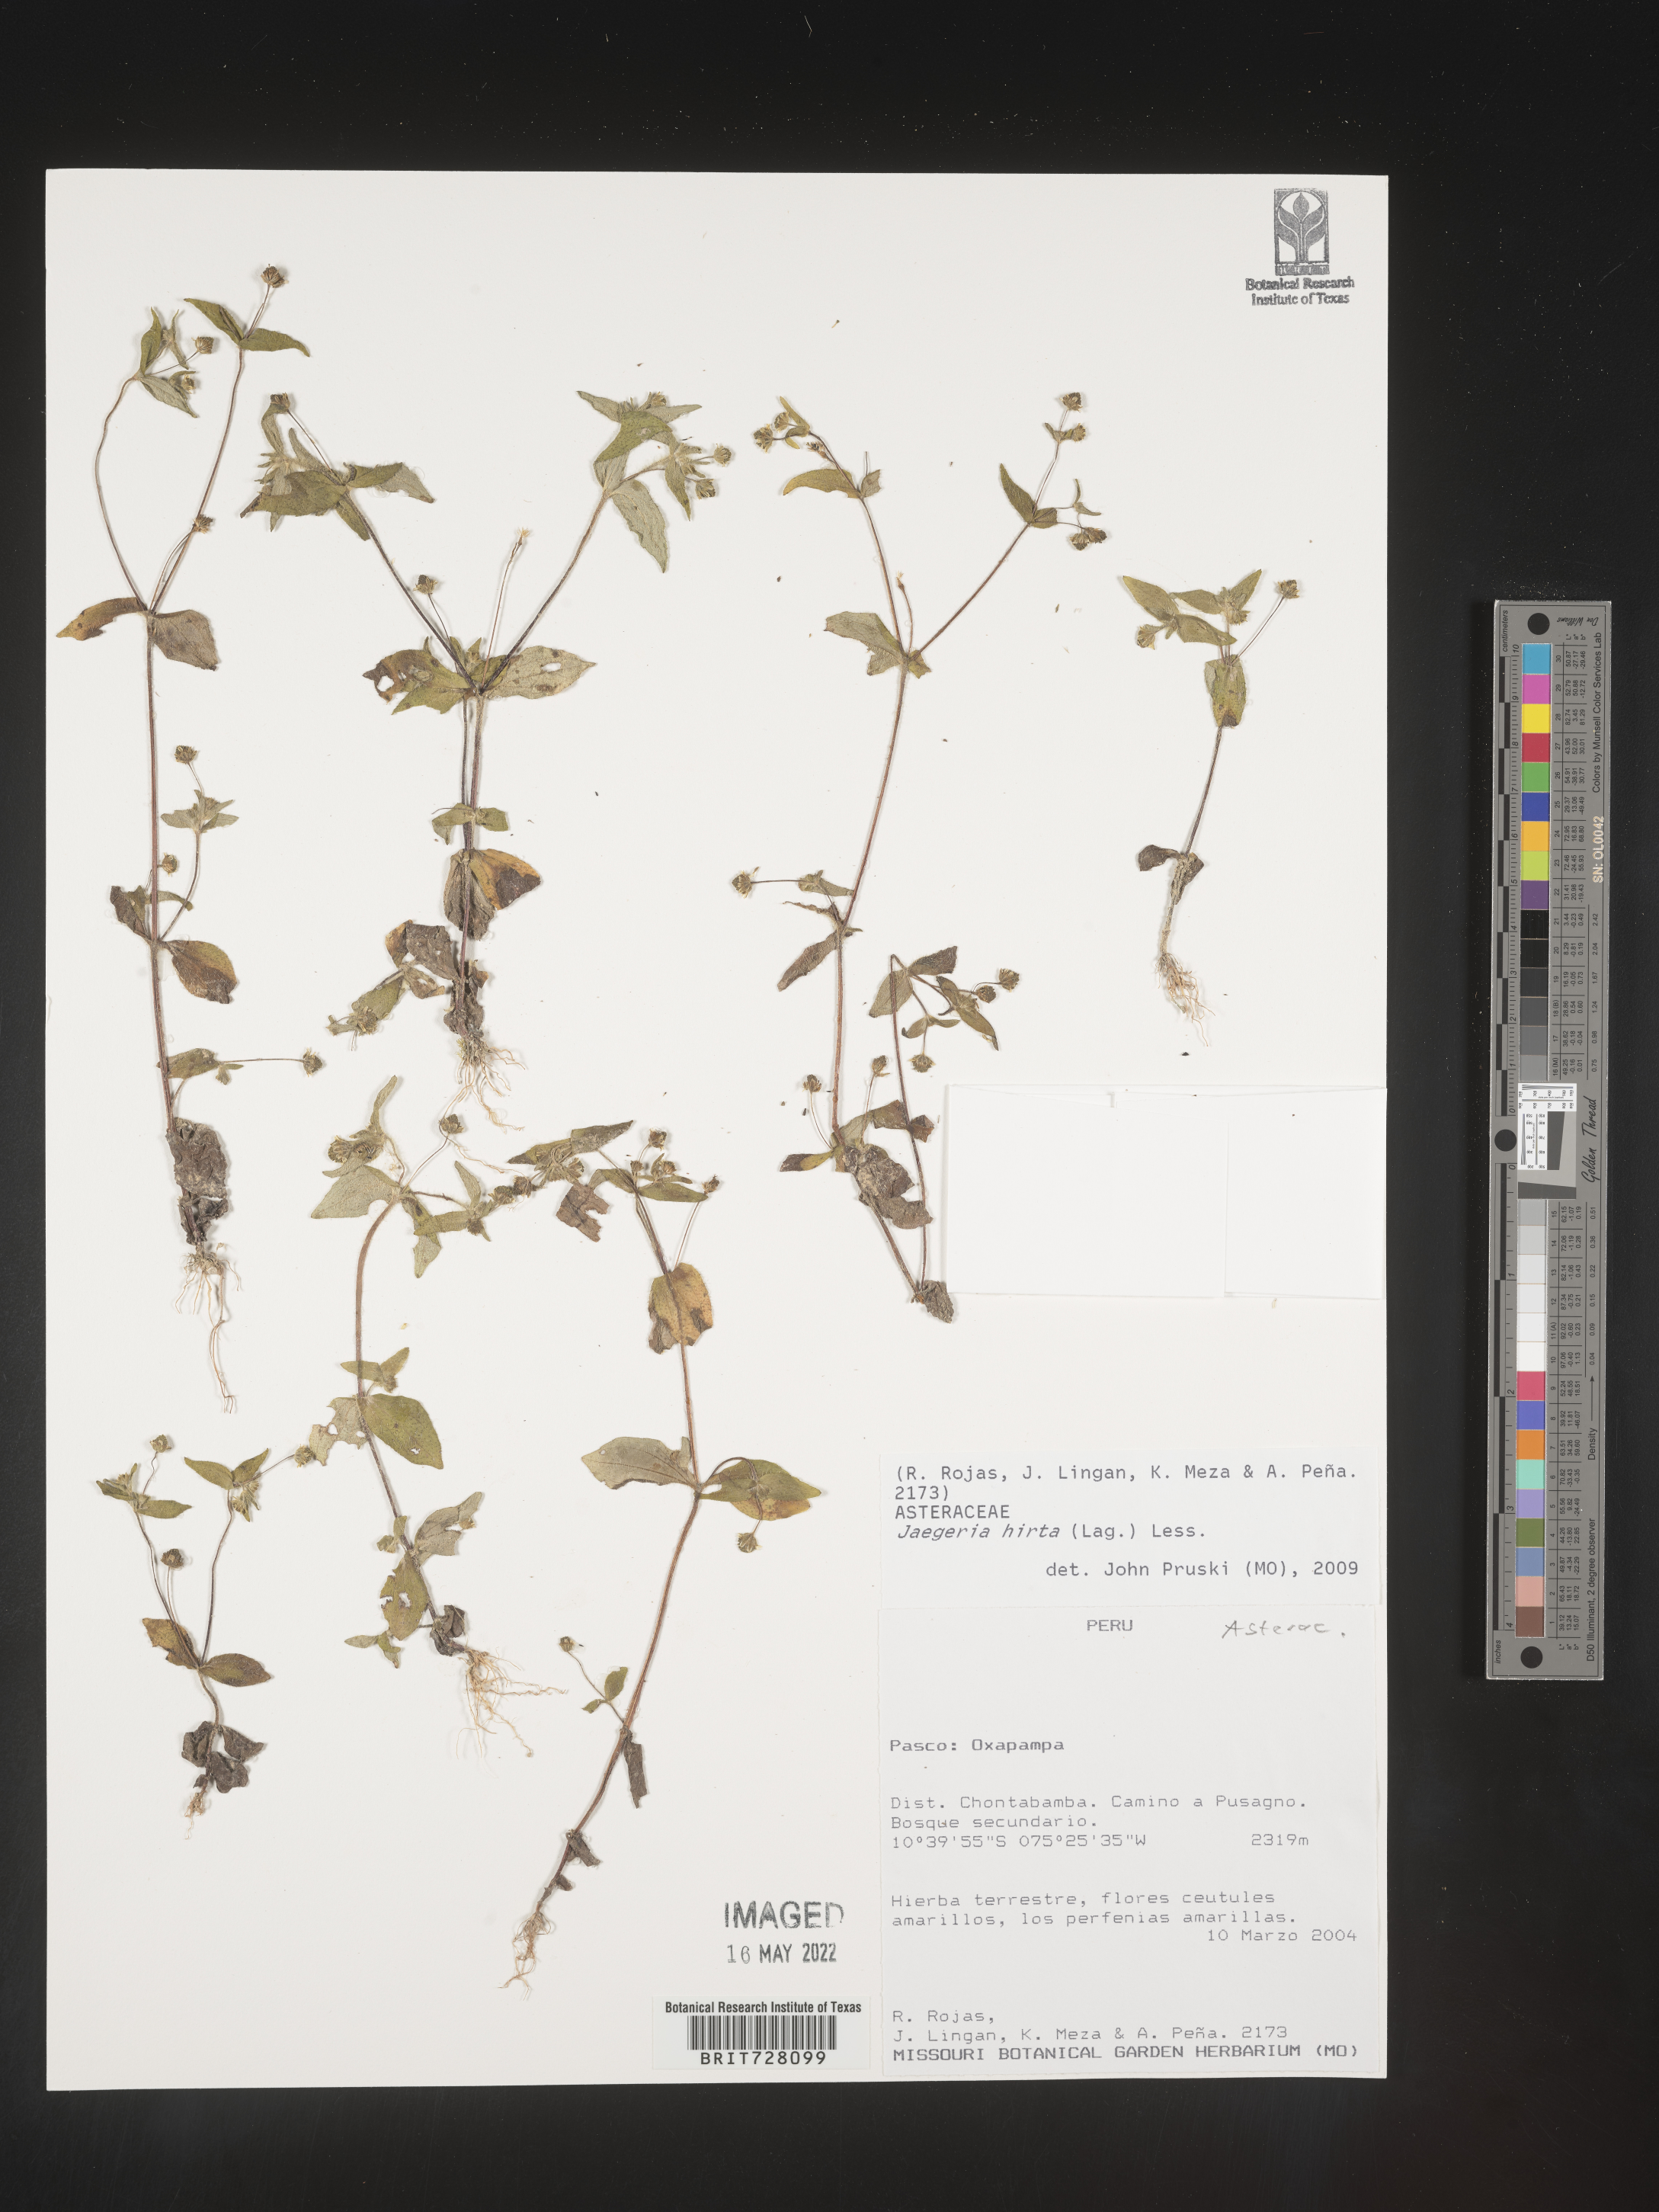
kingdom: Plantae
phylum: Tracheophyta
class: Magnoliopsida
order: Asterales
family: Asteraceae
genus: Jaegeria
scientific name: Jaegeria
